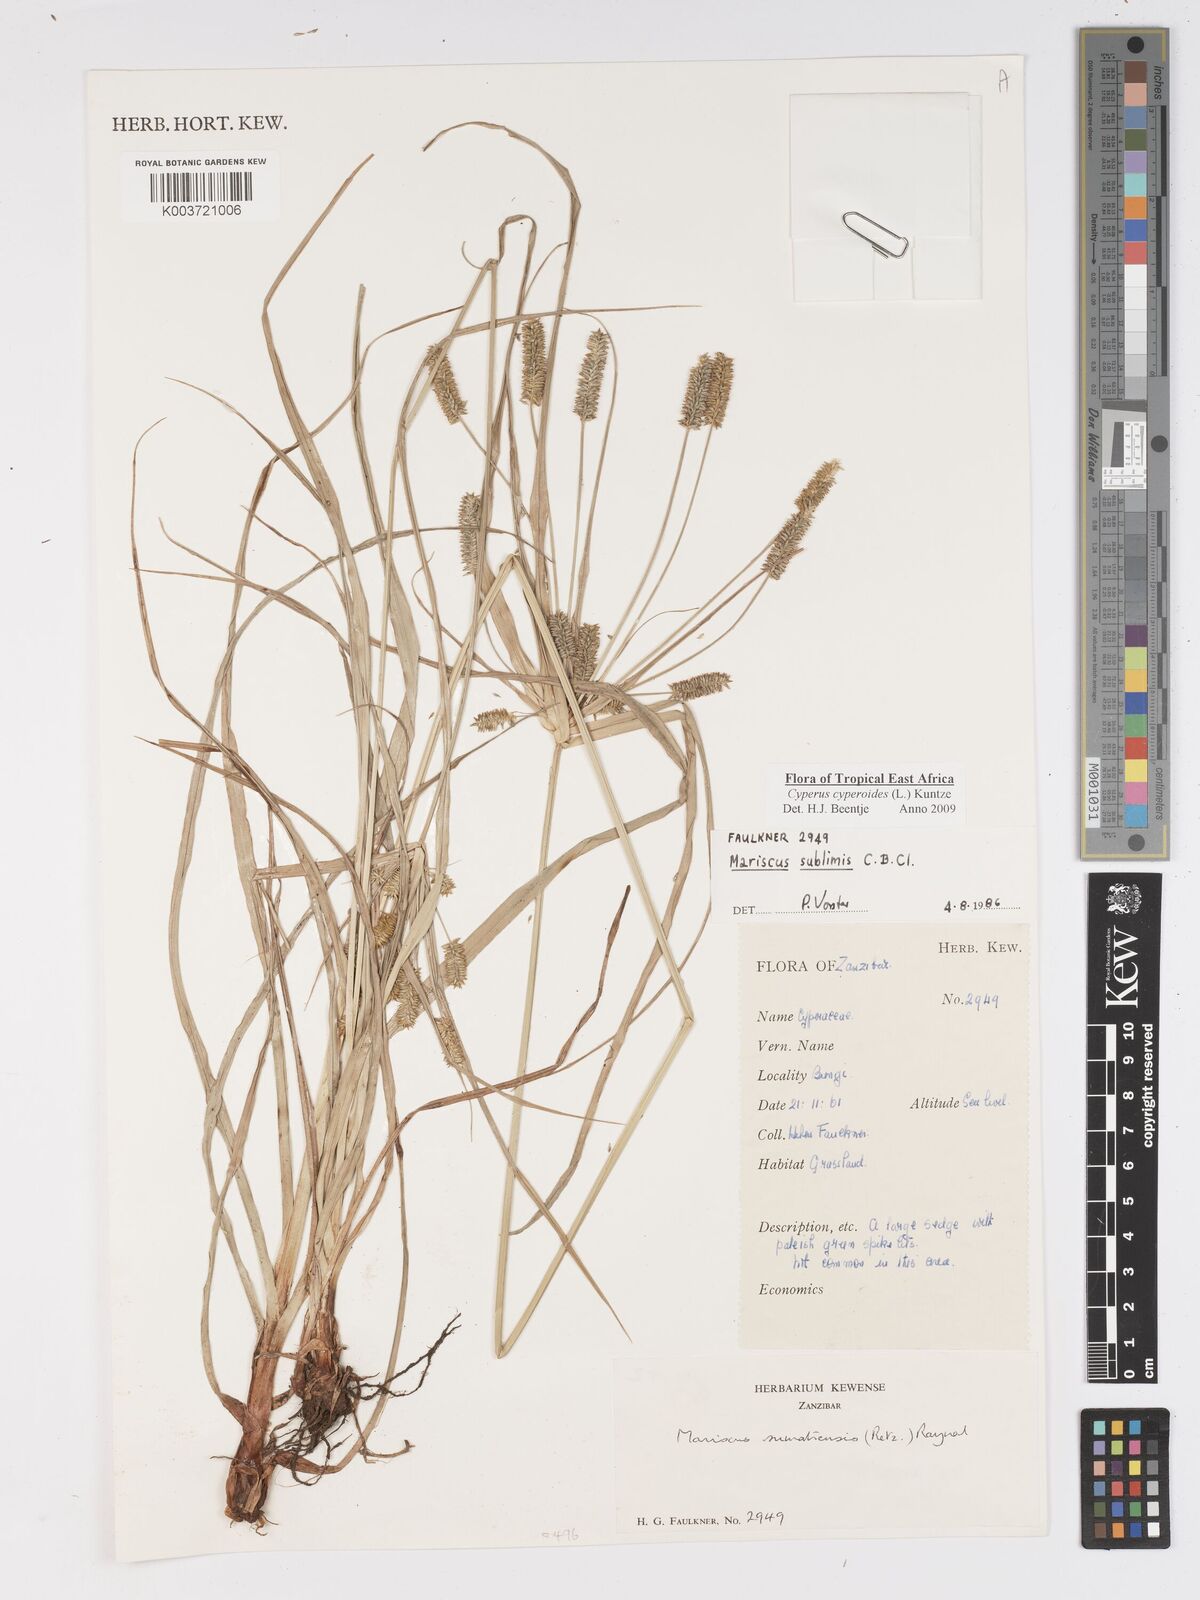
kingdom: Plantae
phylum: Tracheophyta
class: Liliopsida
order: Poales
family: Cyperaceae
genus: Cyperus
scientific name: Cyperus cyperoides
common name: Pacific island flat sedge
